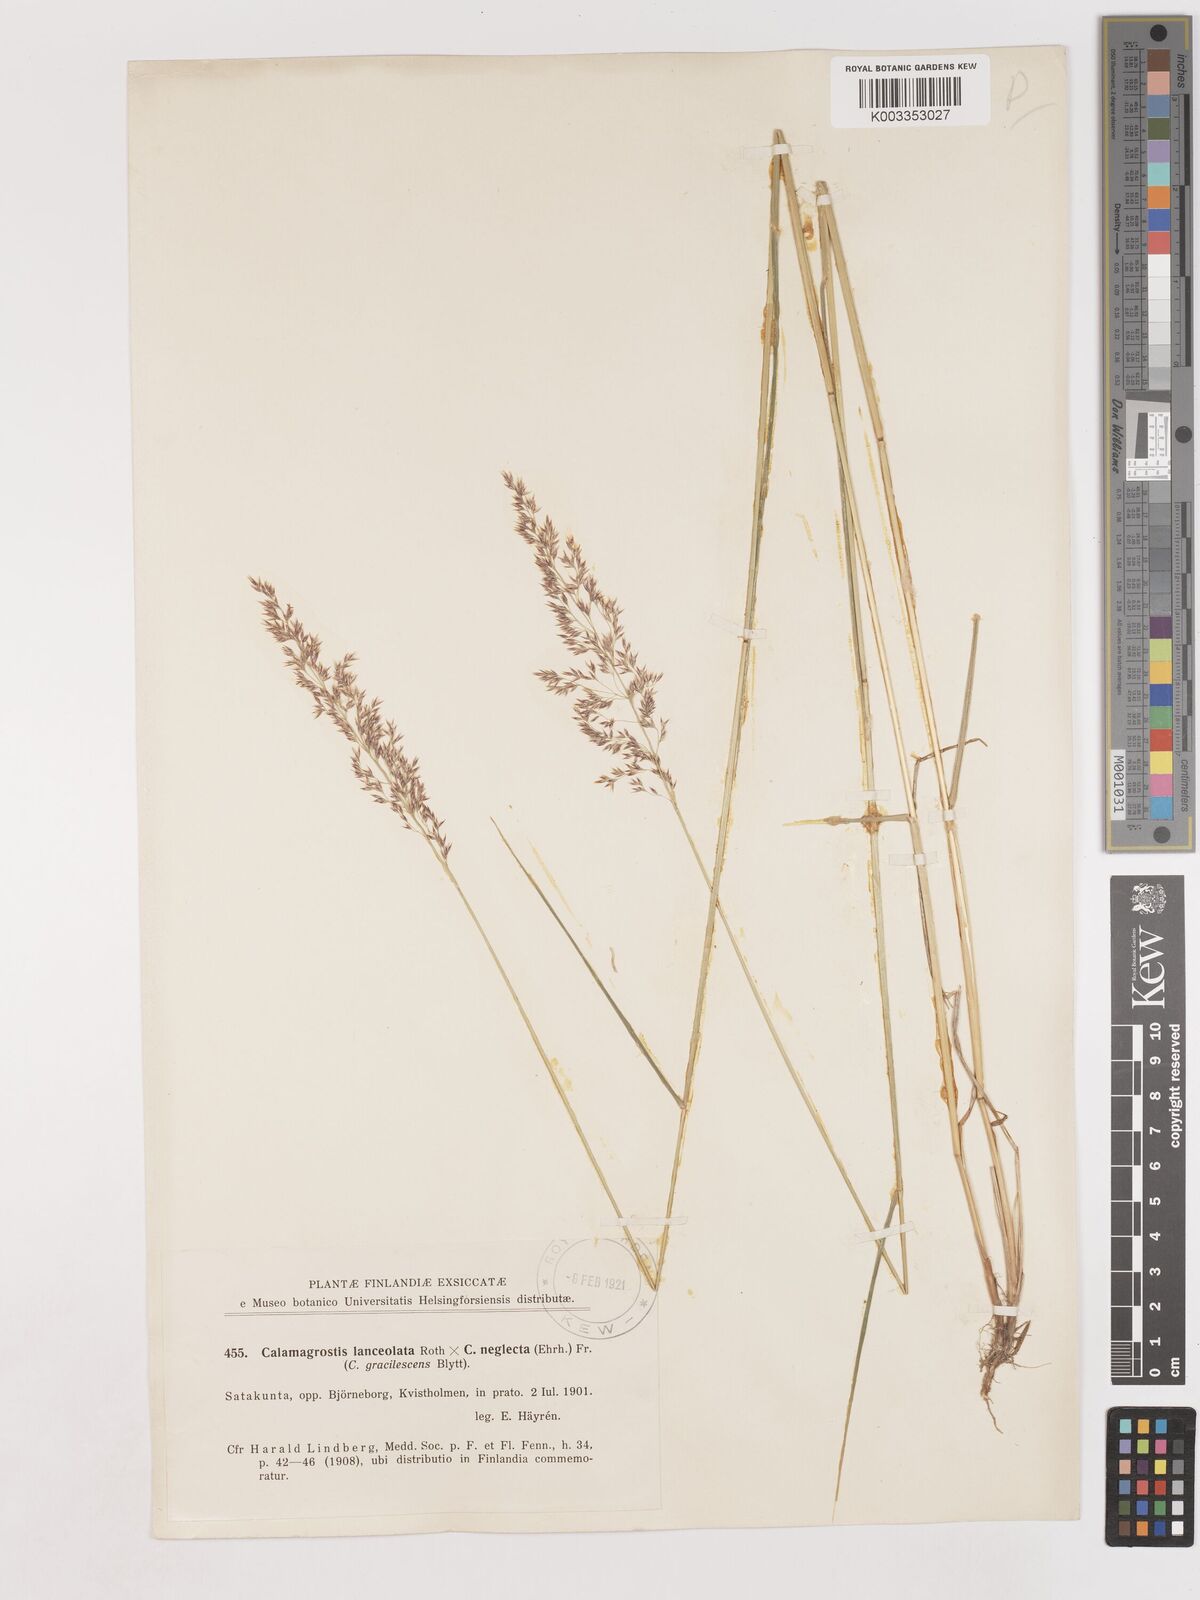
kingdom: Plantae
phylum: Tracheophyta
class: Liliopsida
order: Poales
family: Poaceae
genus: Calamagrostis
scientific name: Calamagrostis canescens
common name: Purple small-reed
